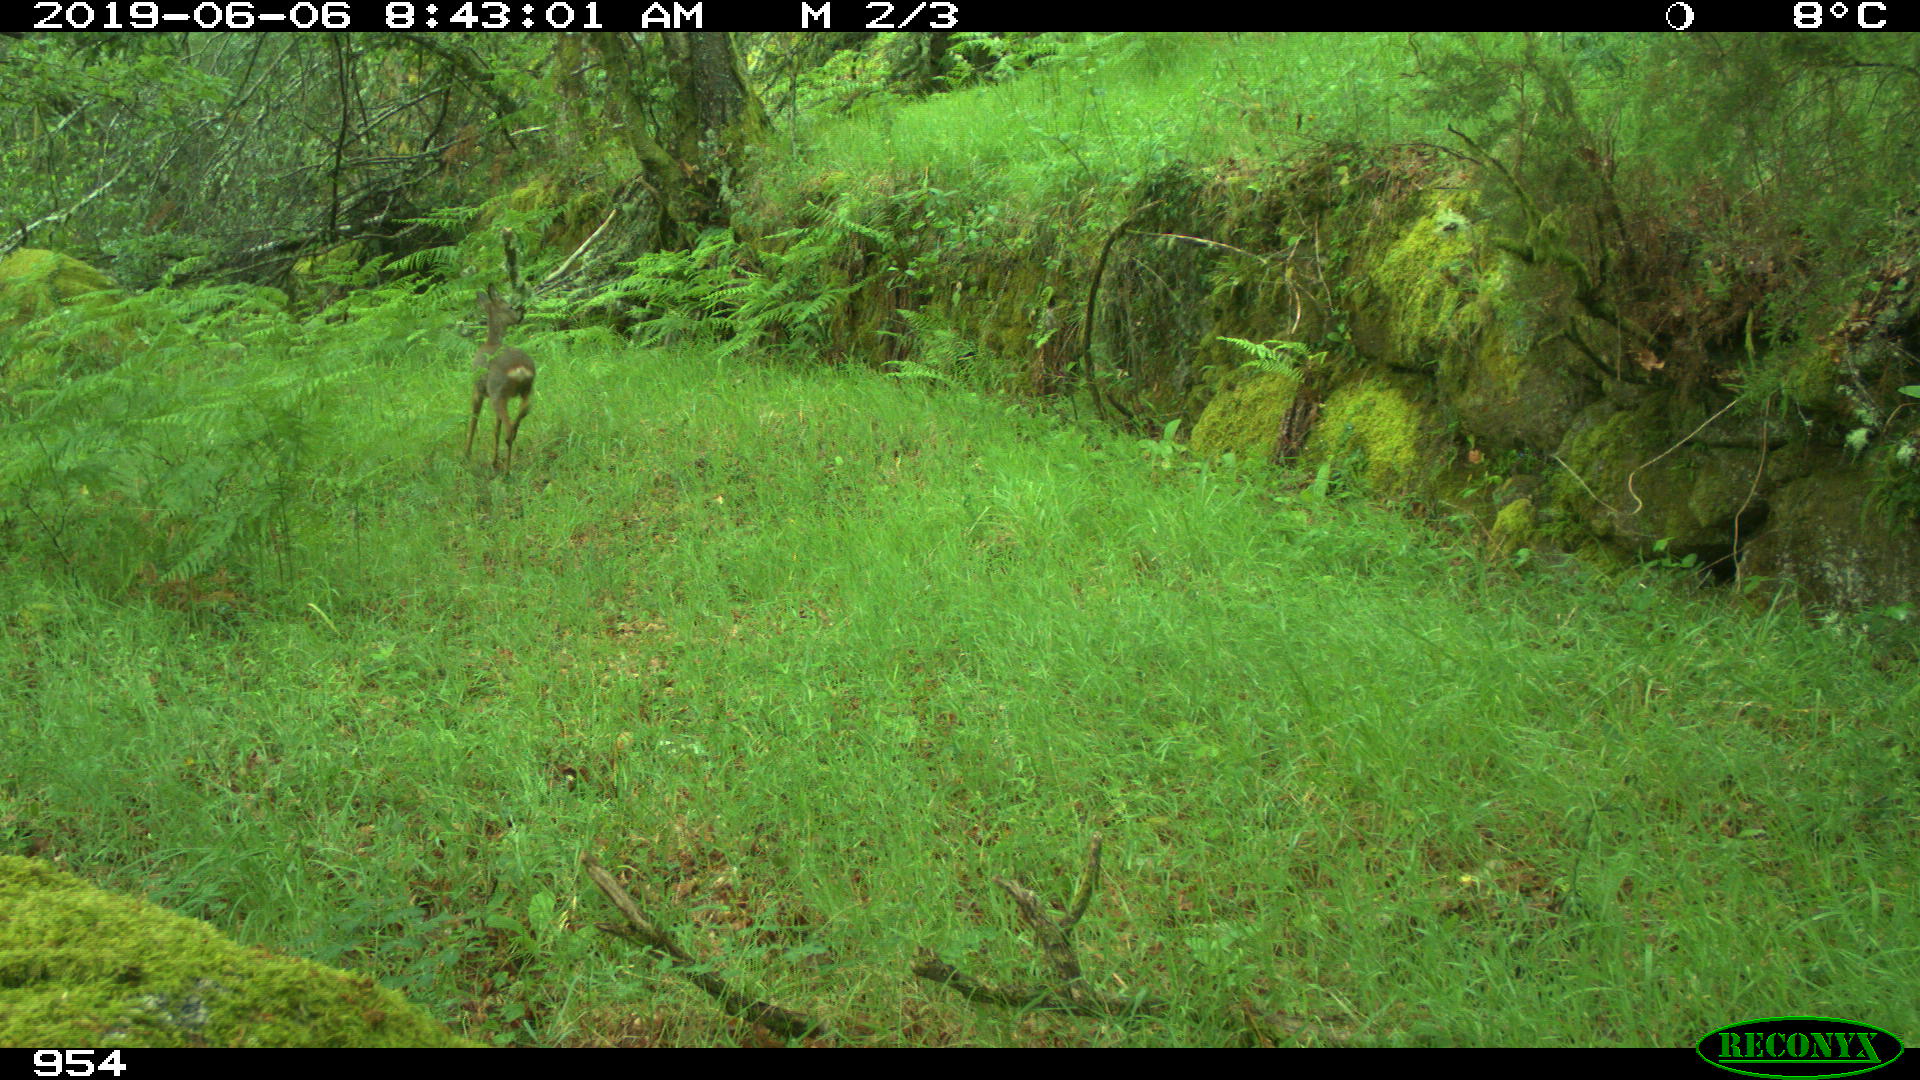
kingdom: Animalia
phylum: Chordata
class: Mammalia
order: Artiodactyla
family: Cervidae
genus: Capreolus
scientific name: Capreolus capreolus
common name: Western roe deer
